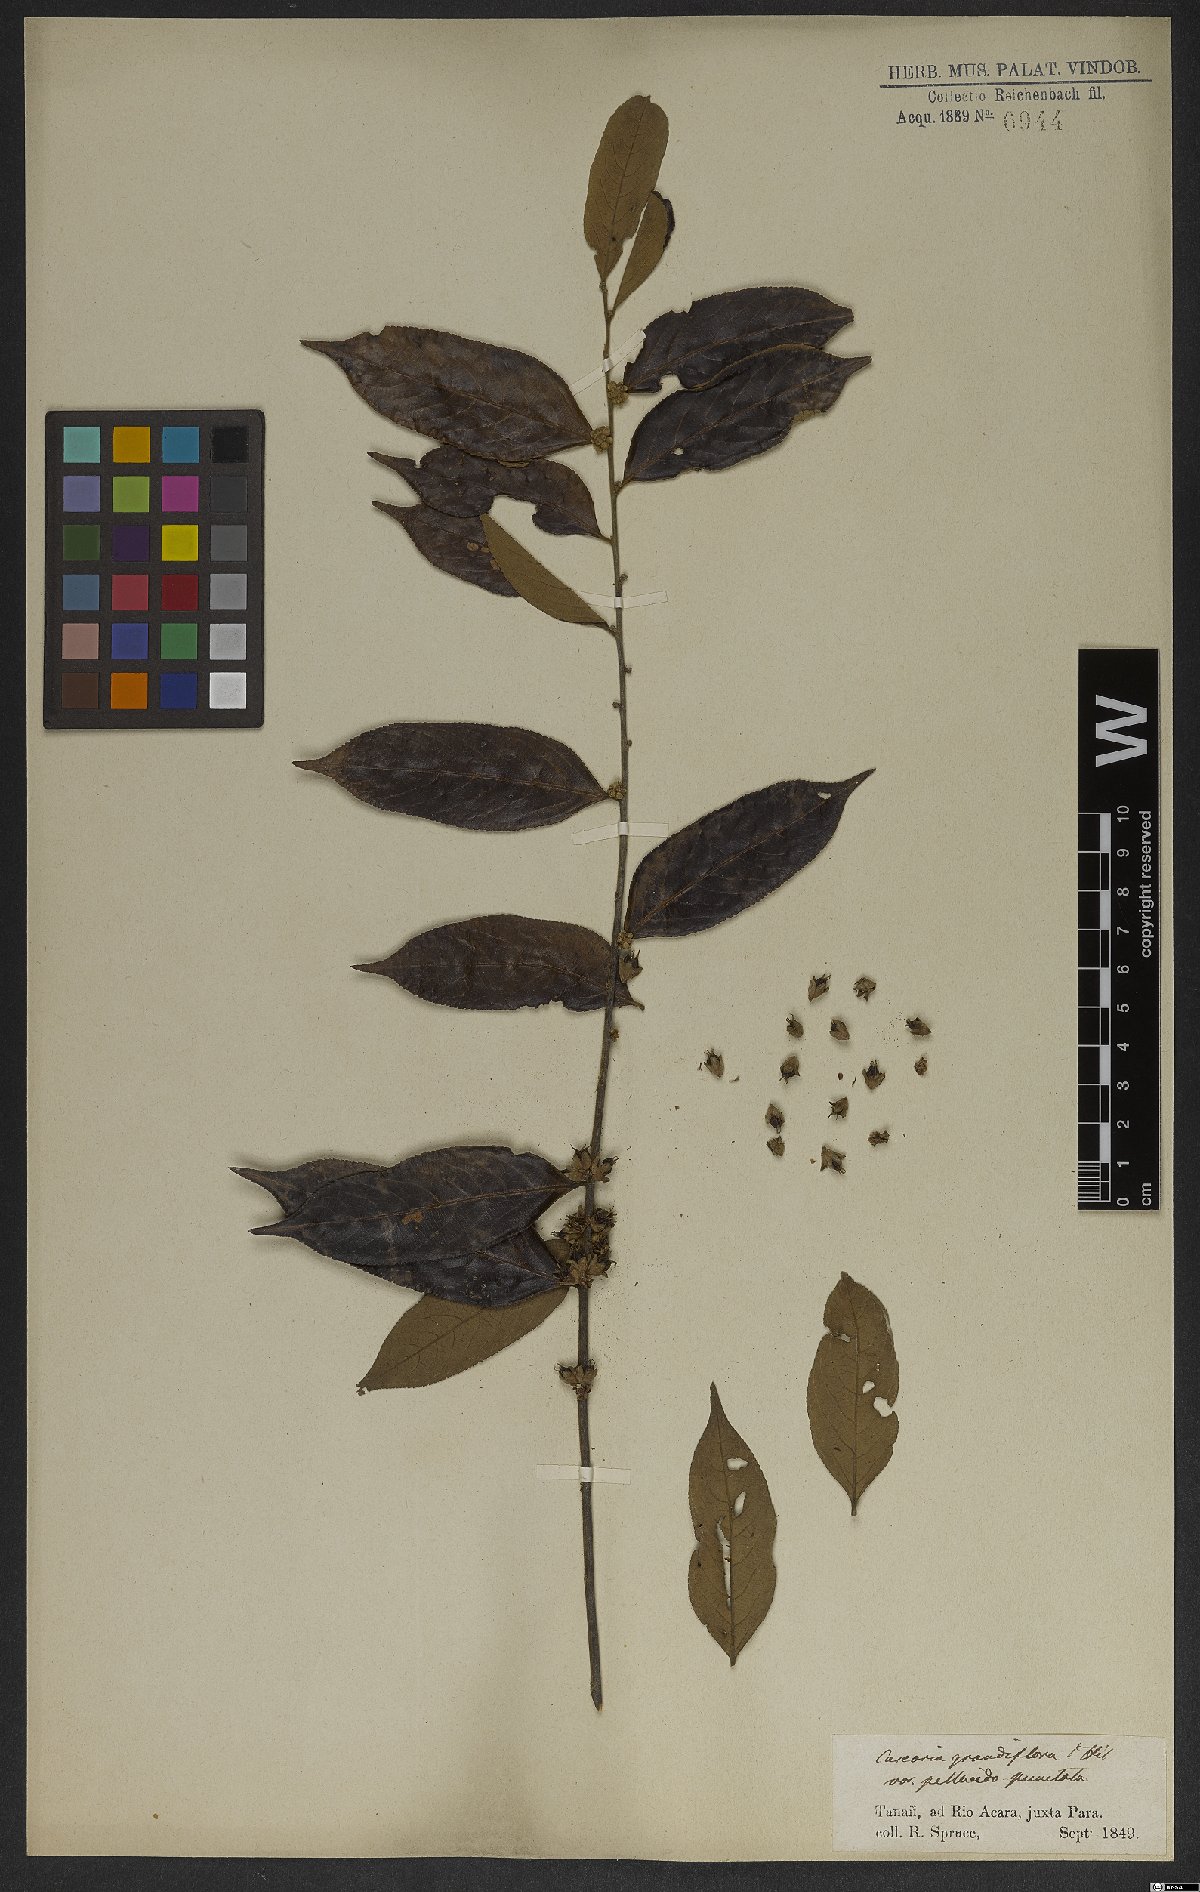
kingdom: Plantae
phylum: Tracheophyta
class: Magnoliopsida
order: Malpighiales
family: Salicaceae
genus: Casearia
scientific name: Casearia grandiflora
